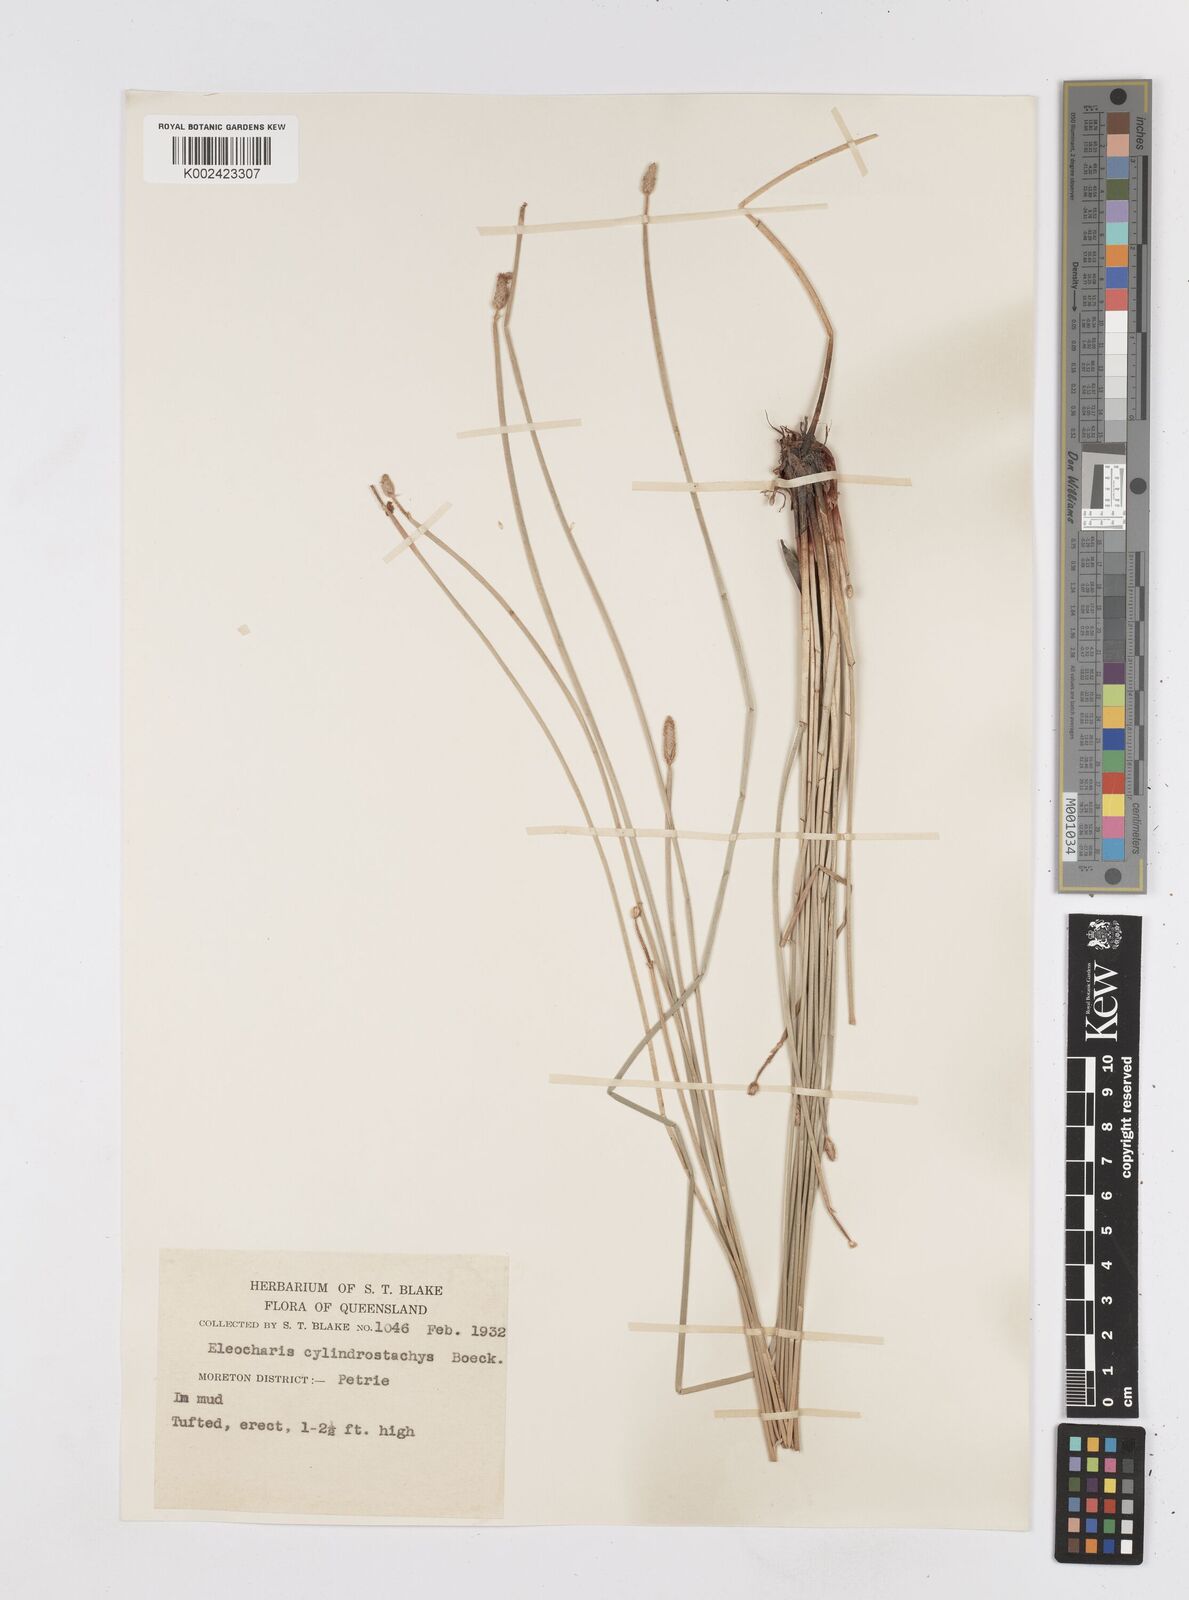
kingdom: Plantae
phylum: Tracheophyta
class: Liliopsida
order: Poales
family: Cyperaceae
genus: Eleocharis
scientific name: Eleocharis cylindrostachys
